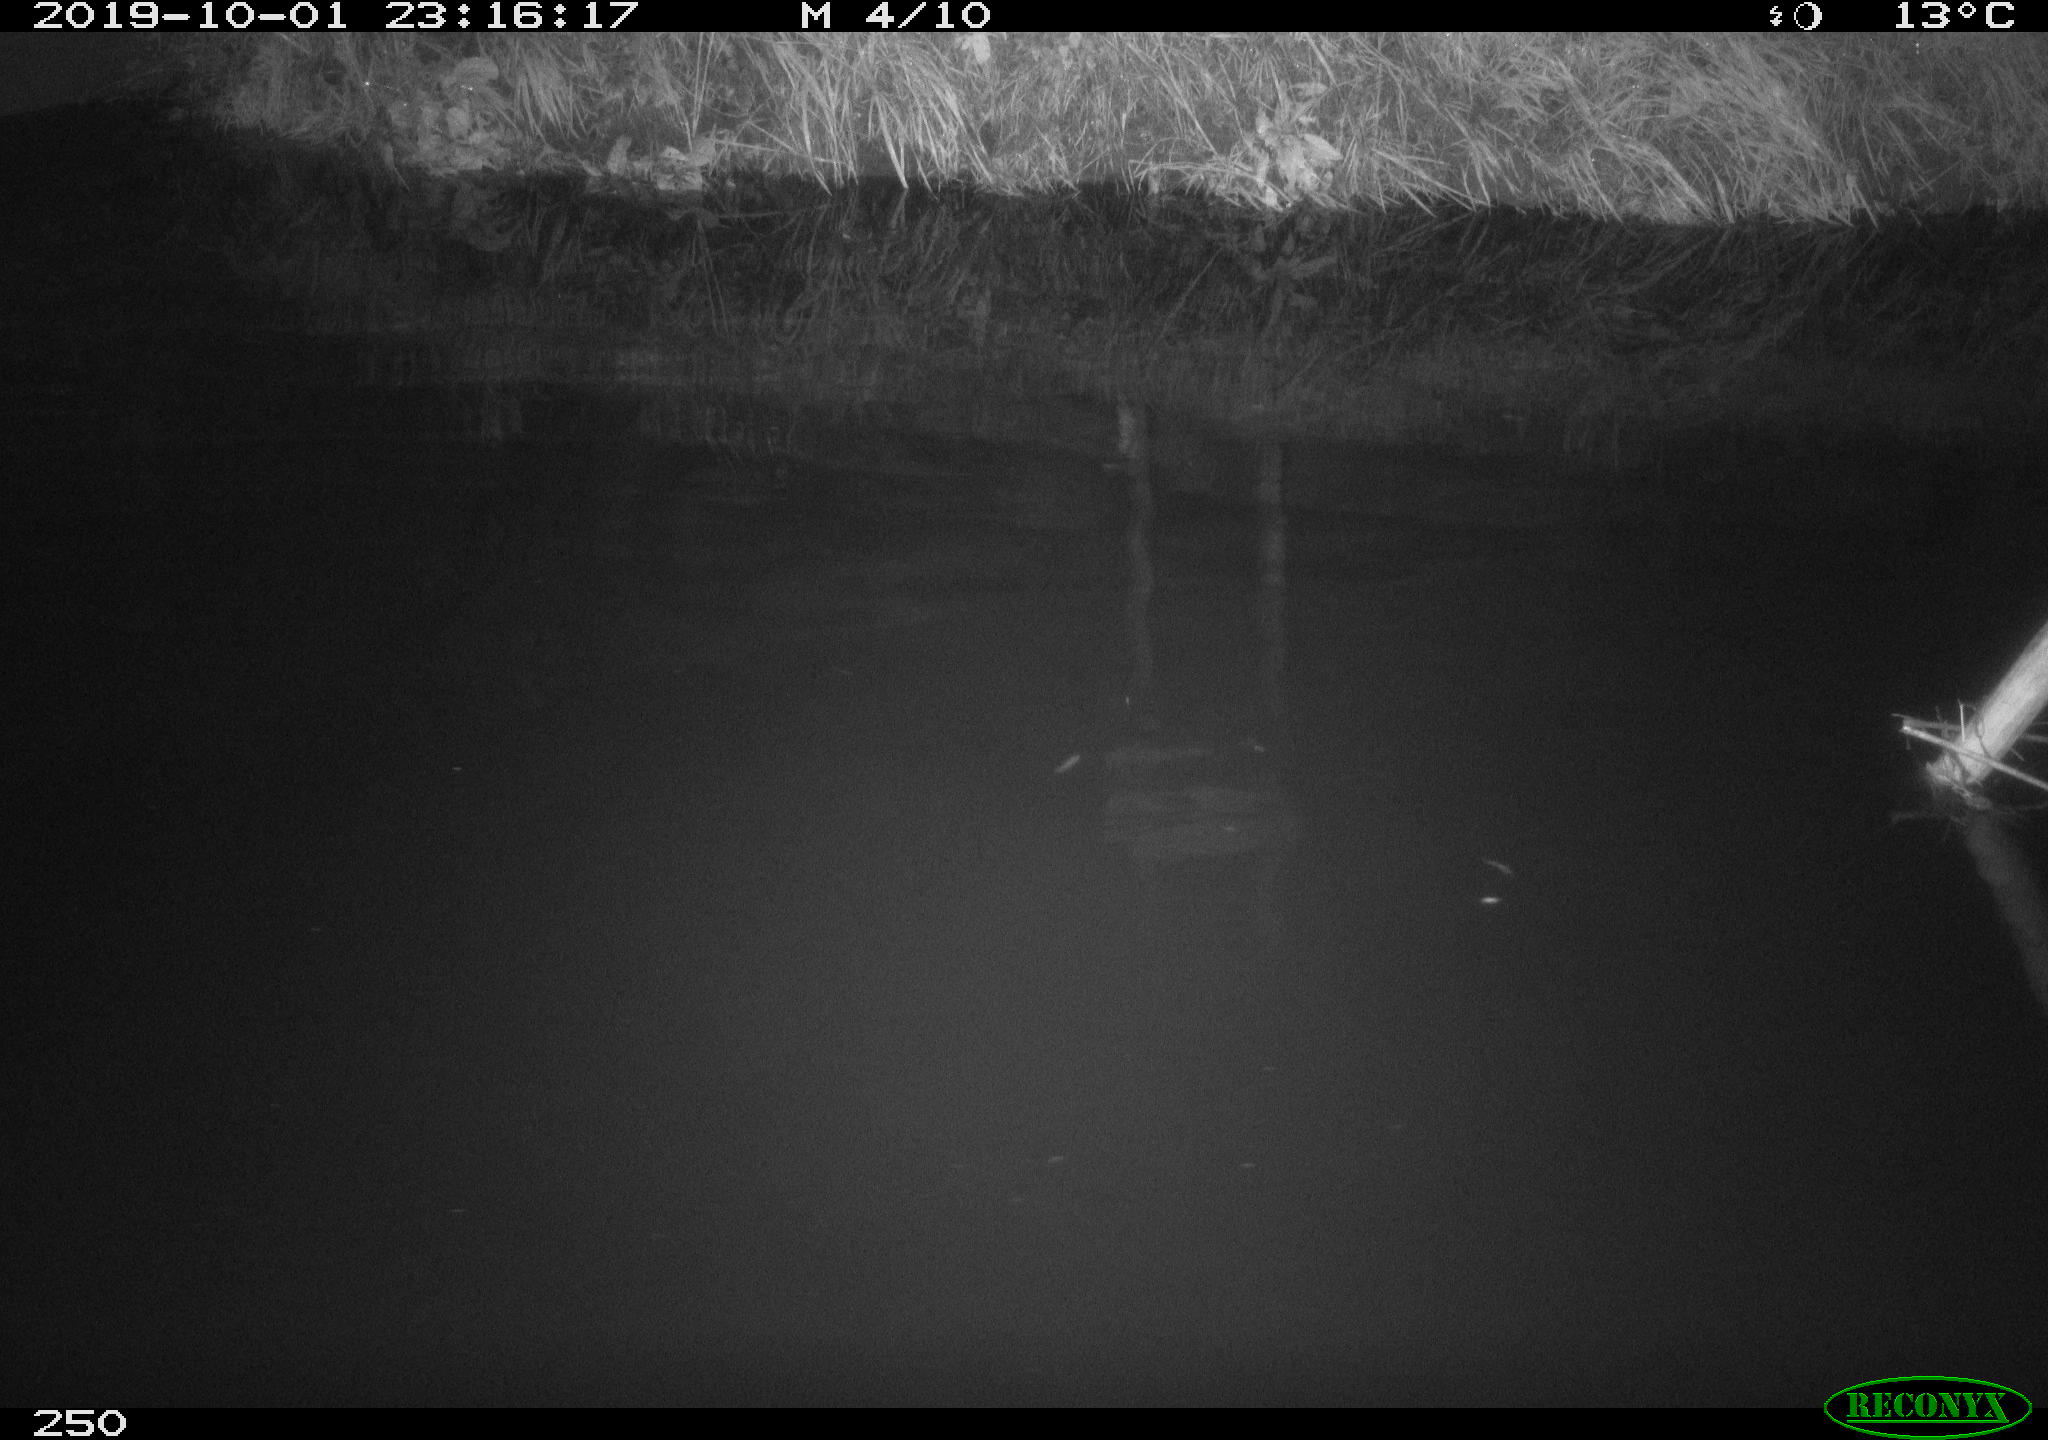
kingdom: Animalia
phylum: Chordata
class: Aves
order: Anseriformes
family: Anatidae
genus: Anas
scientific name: Anas platyrhynchos
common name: Mallard
